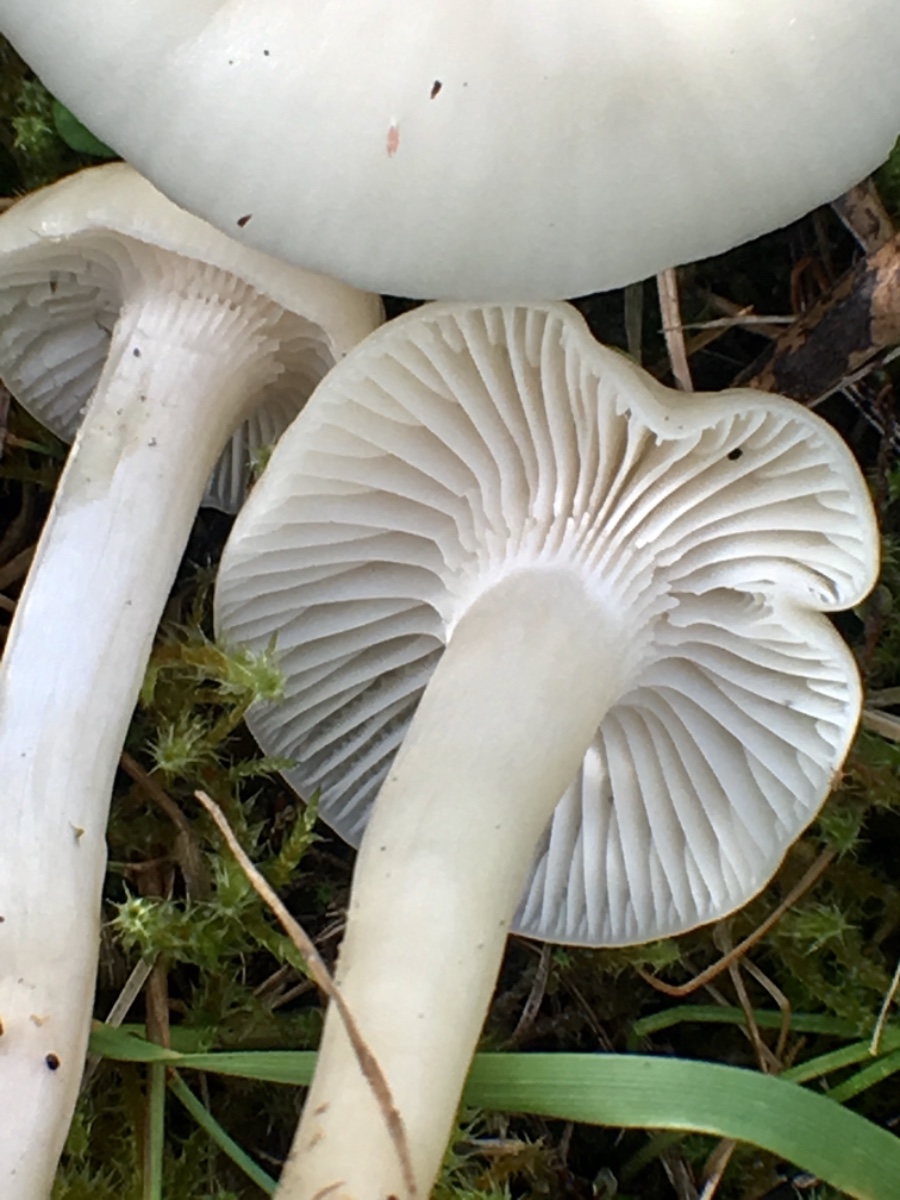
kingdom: Fungi
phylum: Basidiomycota
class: Agaricomycetes
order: Agaricales
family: Hygrophoraceae
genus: Cuphophyllus
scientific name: Cuphophyllus virgineus
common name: snehvid vokshat
